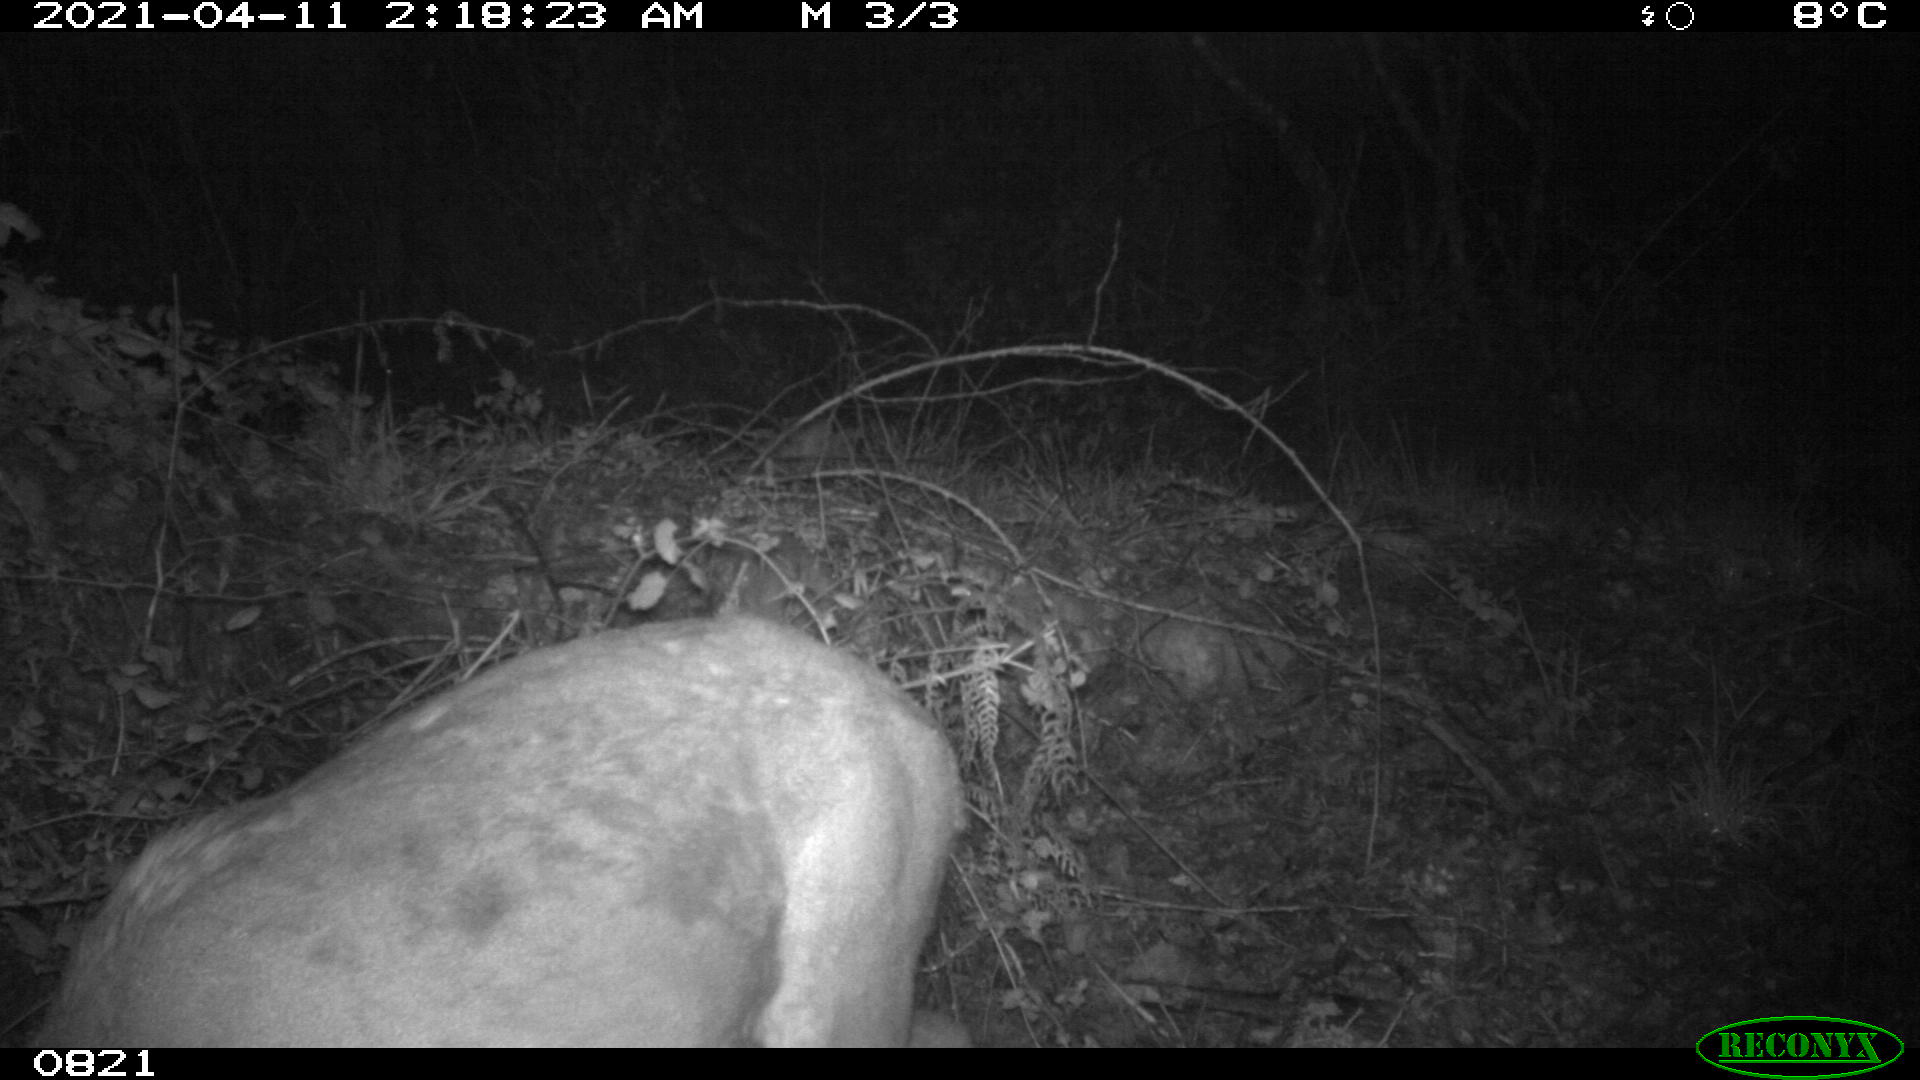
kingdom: Animalia
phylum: Chordata
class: Mammalia
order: Artiodactyla
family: Cervidae
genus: Capreolus
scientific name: Capreolus capreolus
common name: Western roe deer
